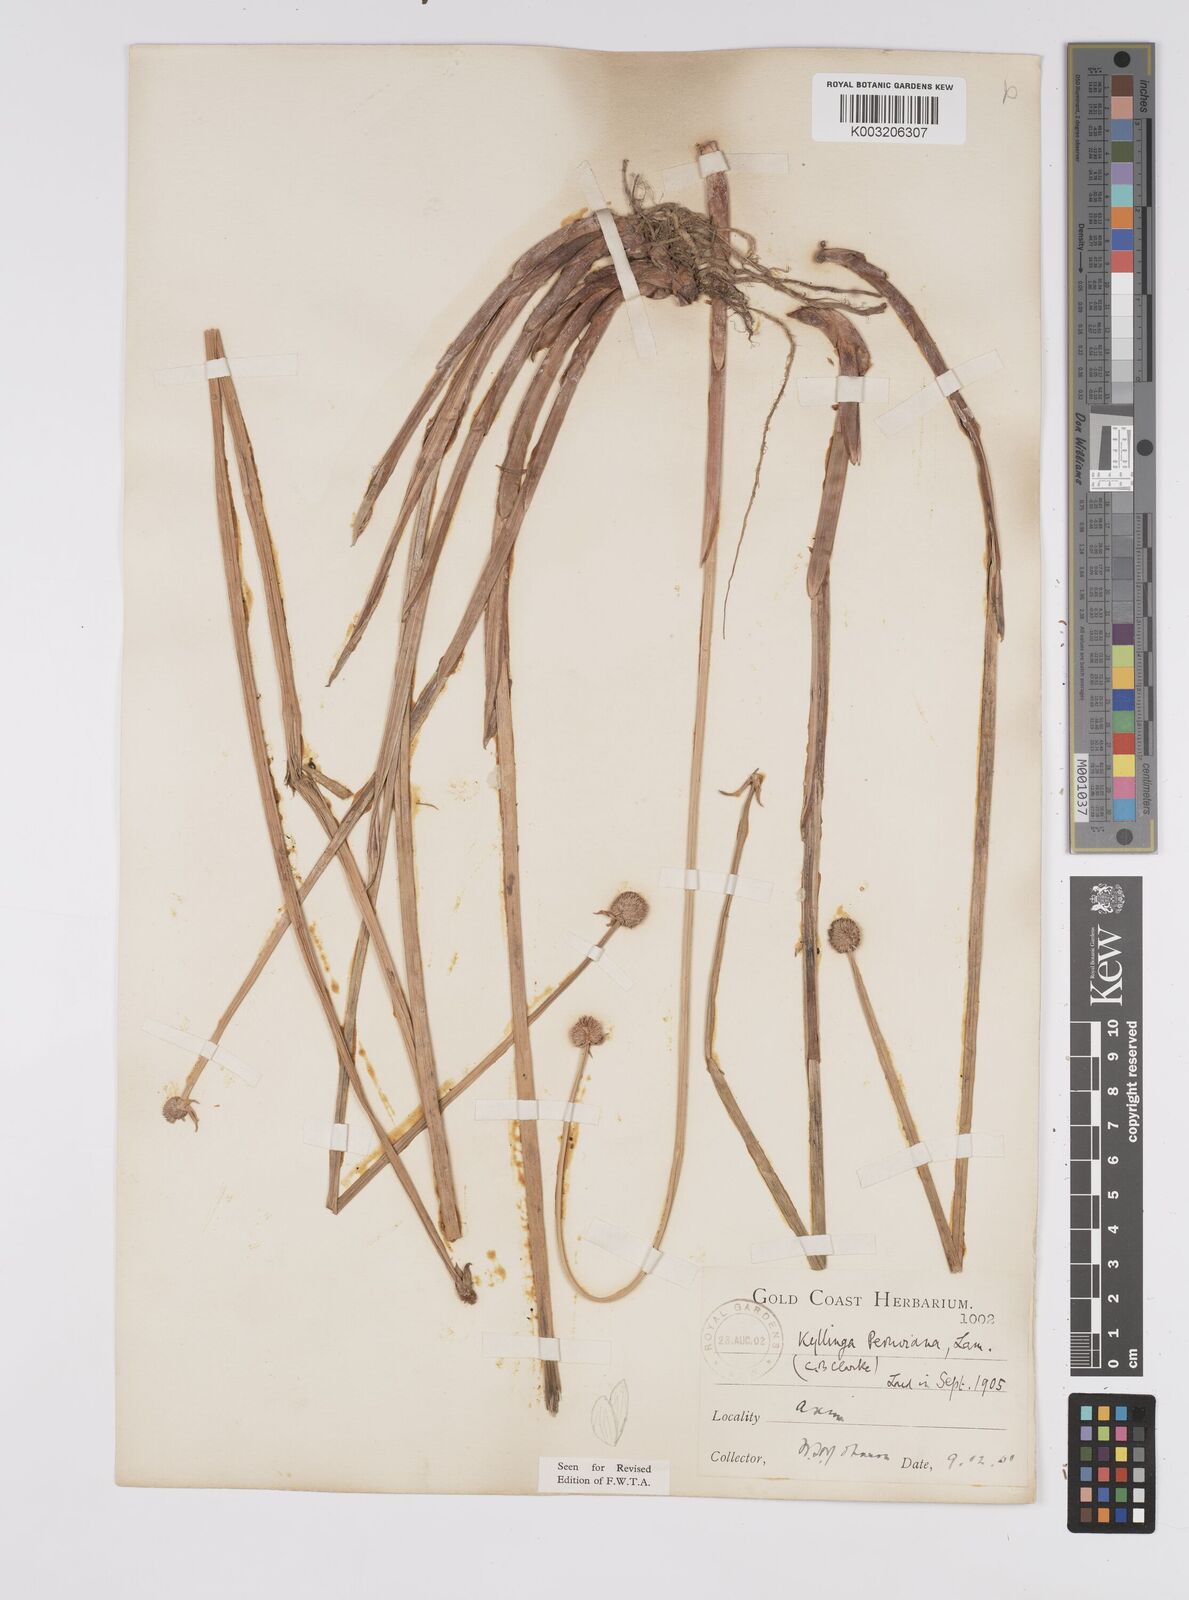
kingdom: Plantae
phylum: Tracheophyta
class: Liliopsida
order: Poales
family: Cyperaceae
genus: Cyperus
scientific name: Cyperus obtusatus
